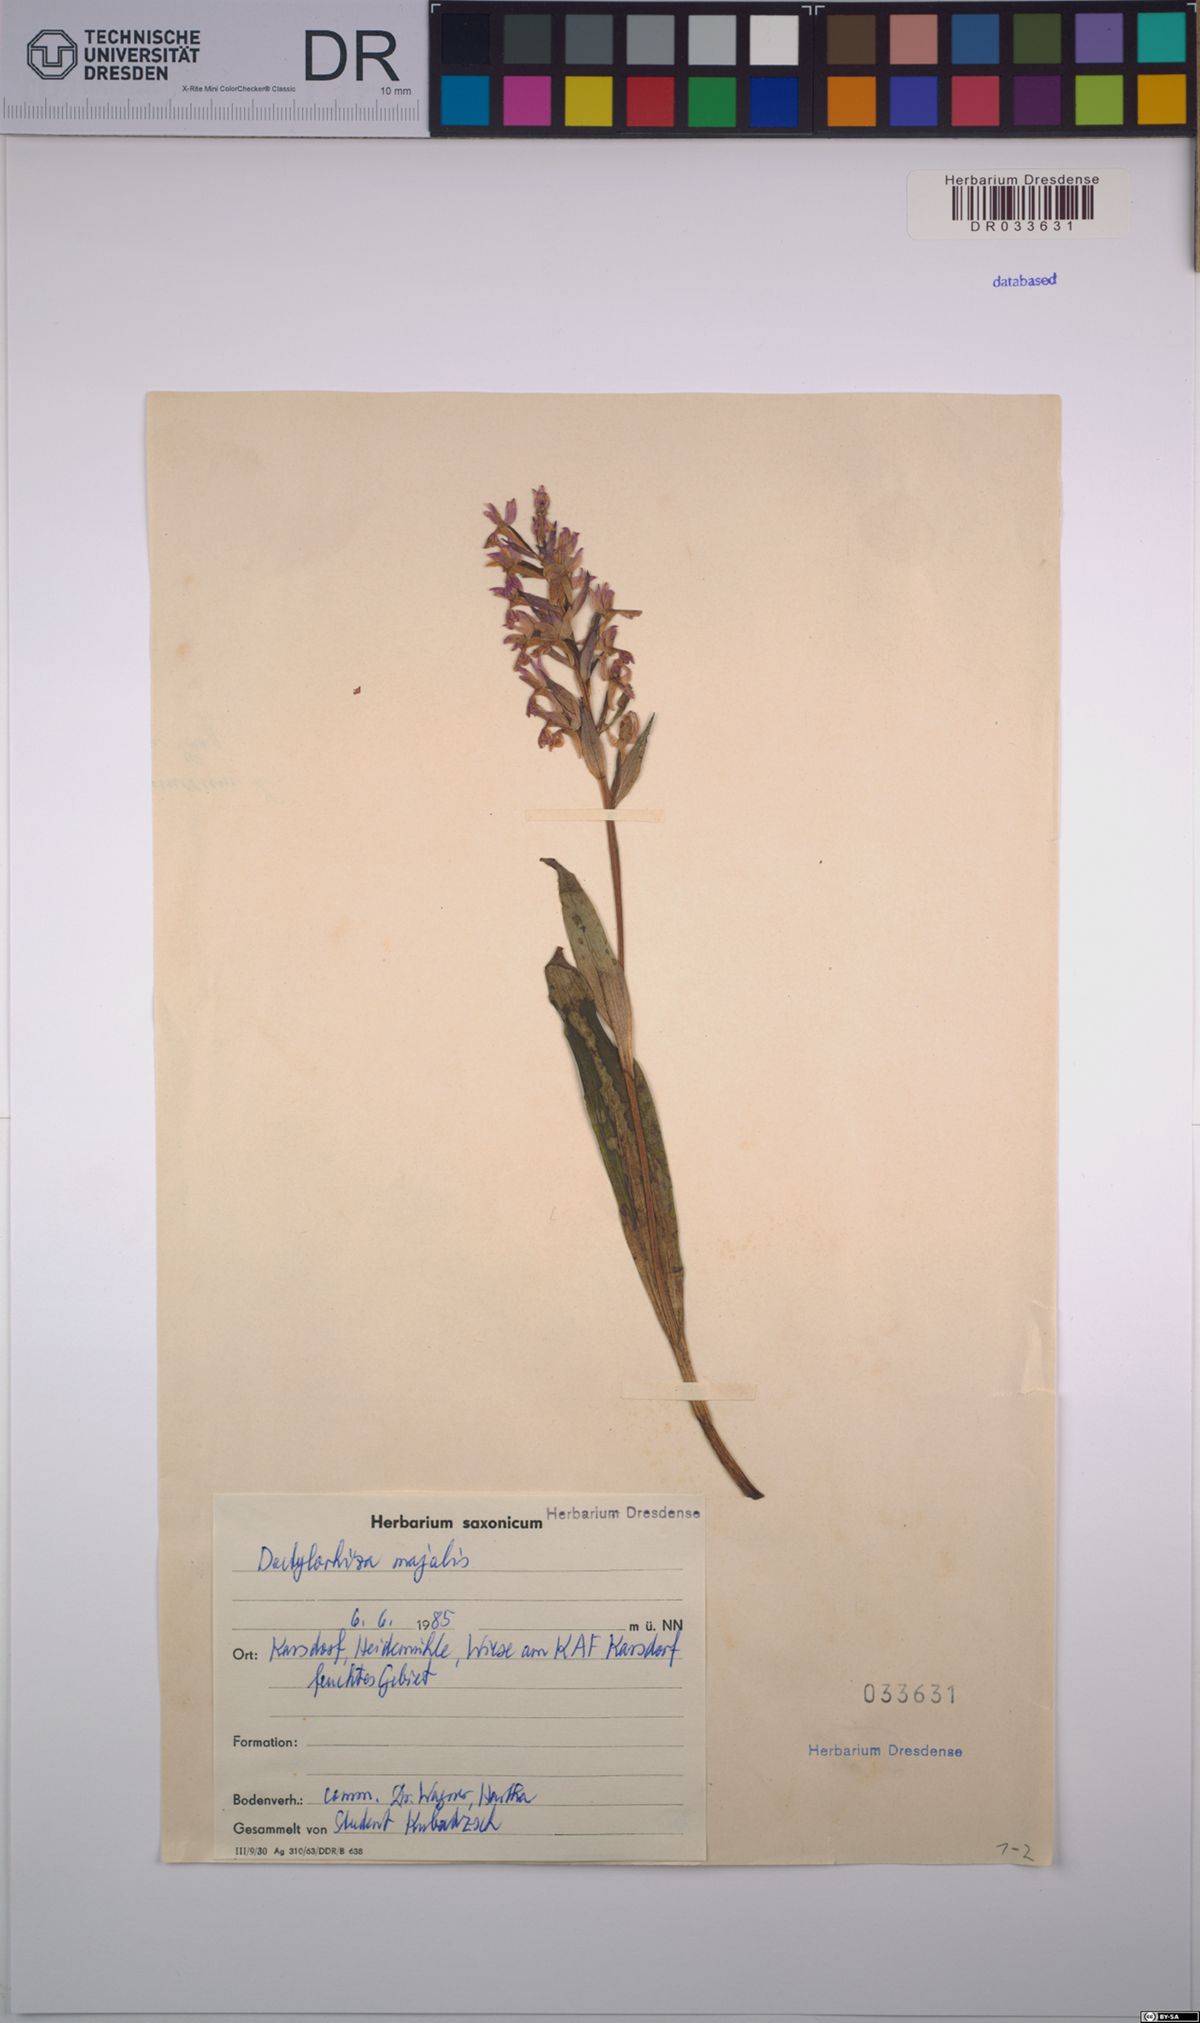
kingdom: Plantae
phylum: Tracheophyta
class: Liliopsida
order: Asparagales
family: Orchidaceae
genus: Dactylorhiza
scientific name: Dactylorhiza majalis
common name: Marsh orchid
